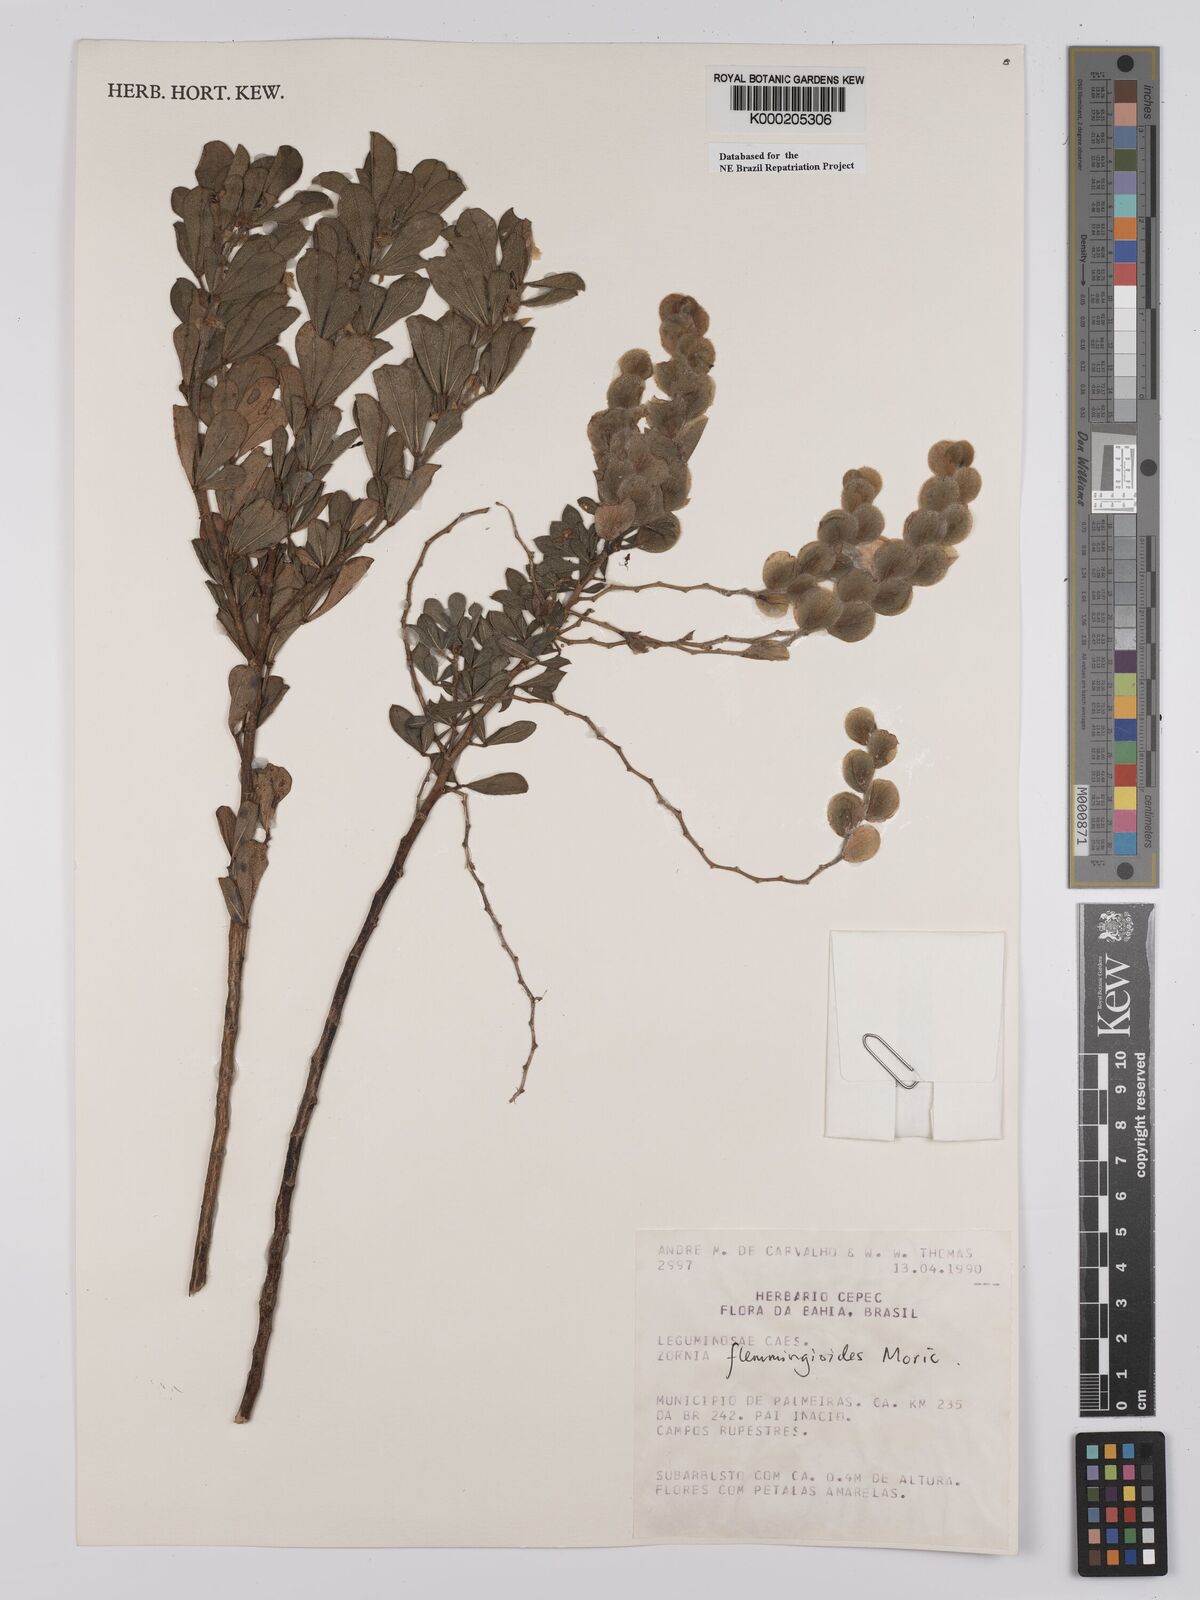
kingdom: Plantae
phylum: Tracheophyta
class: Magnoliopsida
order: Fabales
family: Fabaceae
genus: Zornia
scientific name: Zornia flemmingioides
